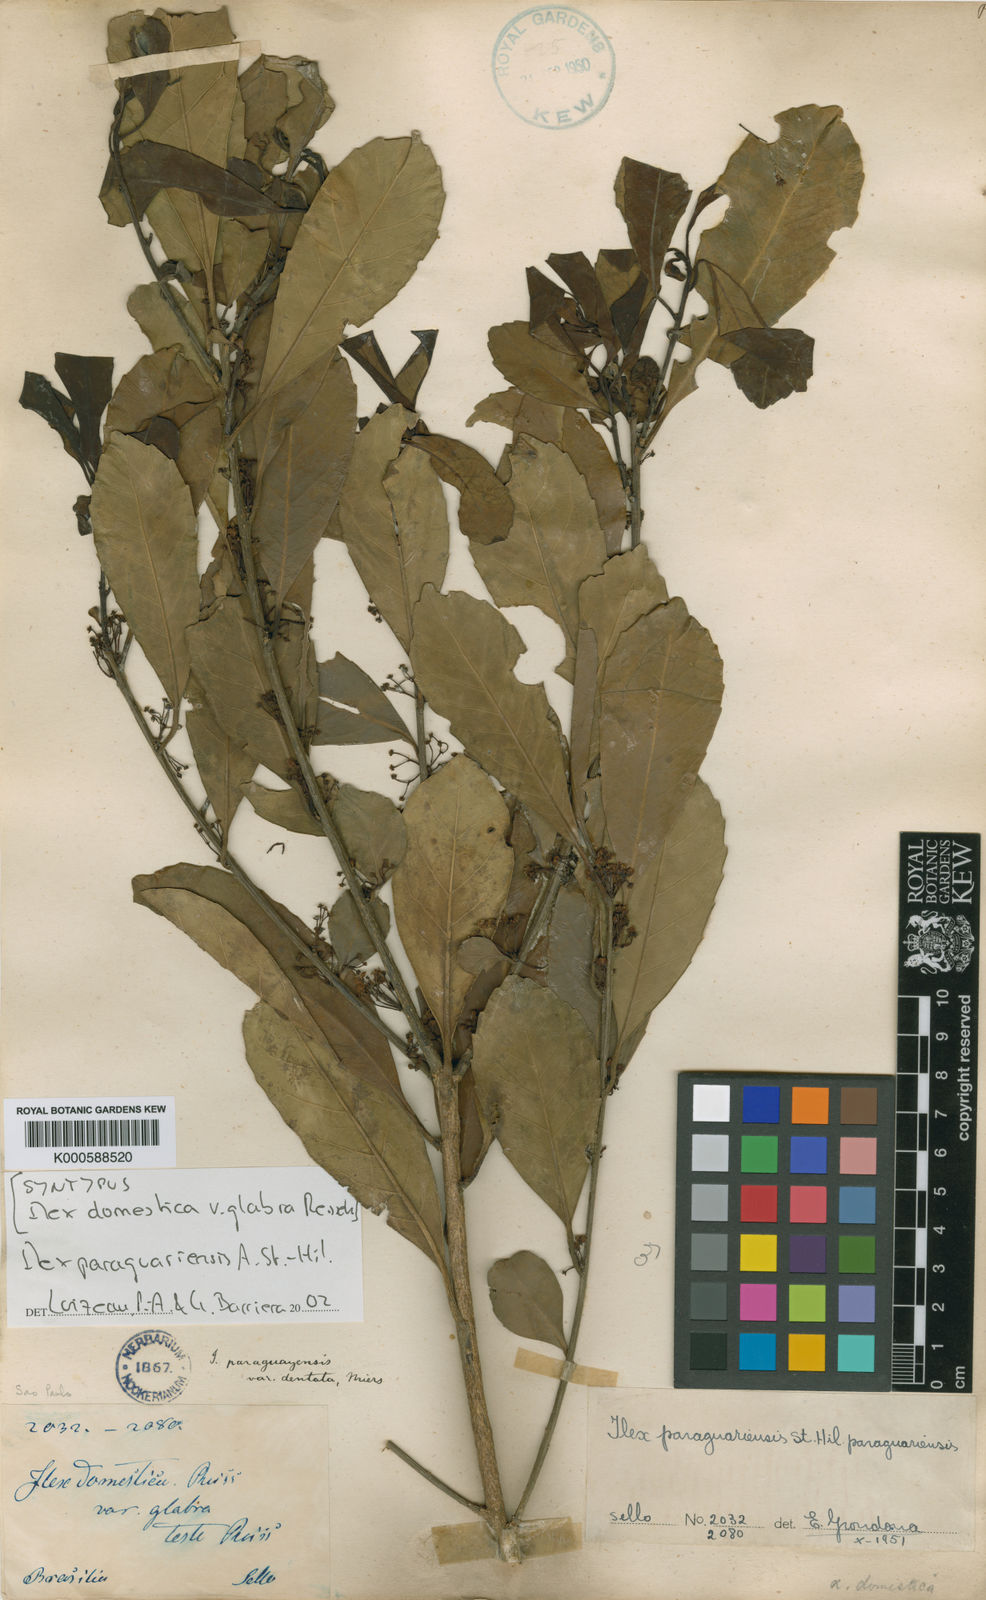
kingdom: Plantae
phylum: Tracheophyta
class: Magnoliopsida
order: Aquifoliales
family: Aquifoliaceae
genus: Ilex
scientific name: Ilex paraguariensis
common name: Paraguay tea
